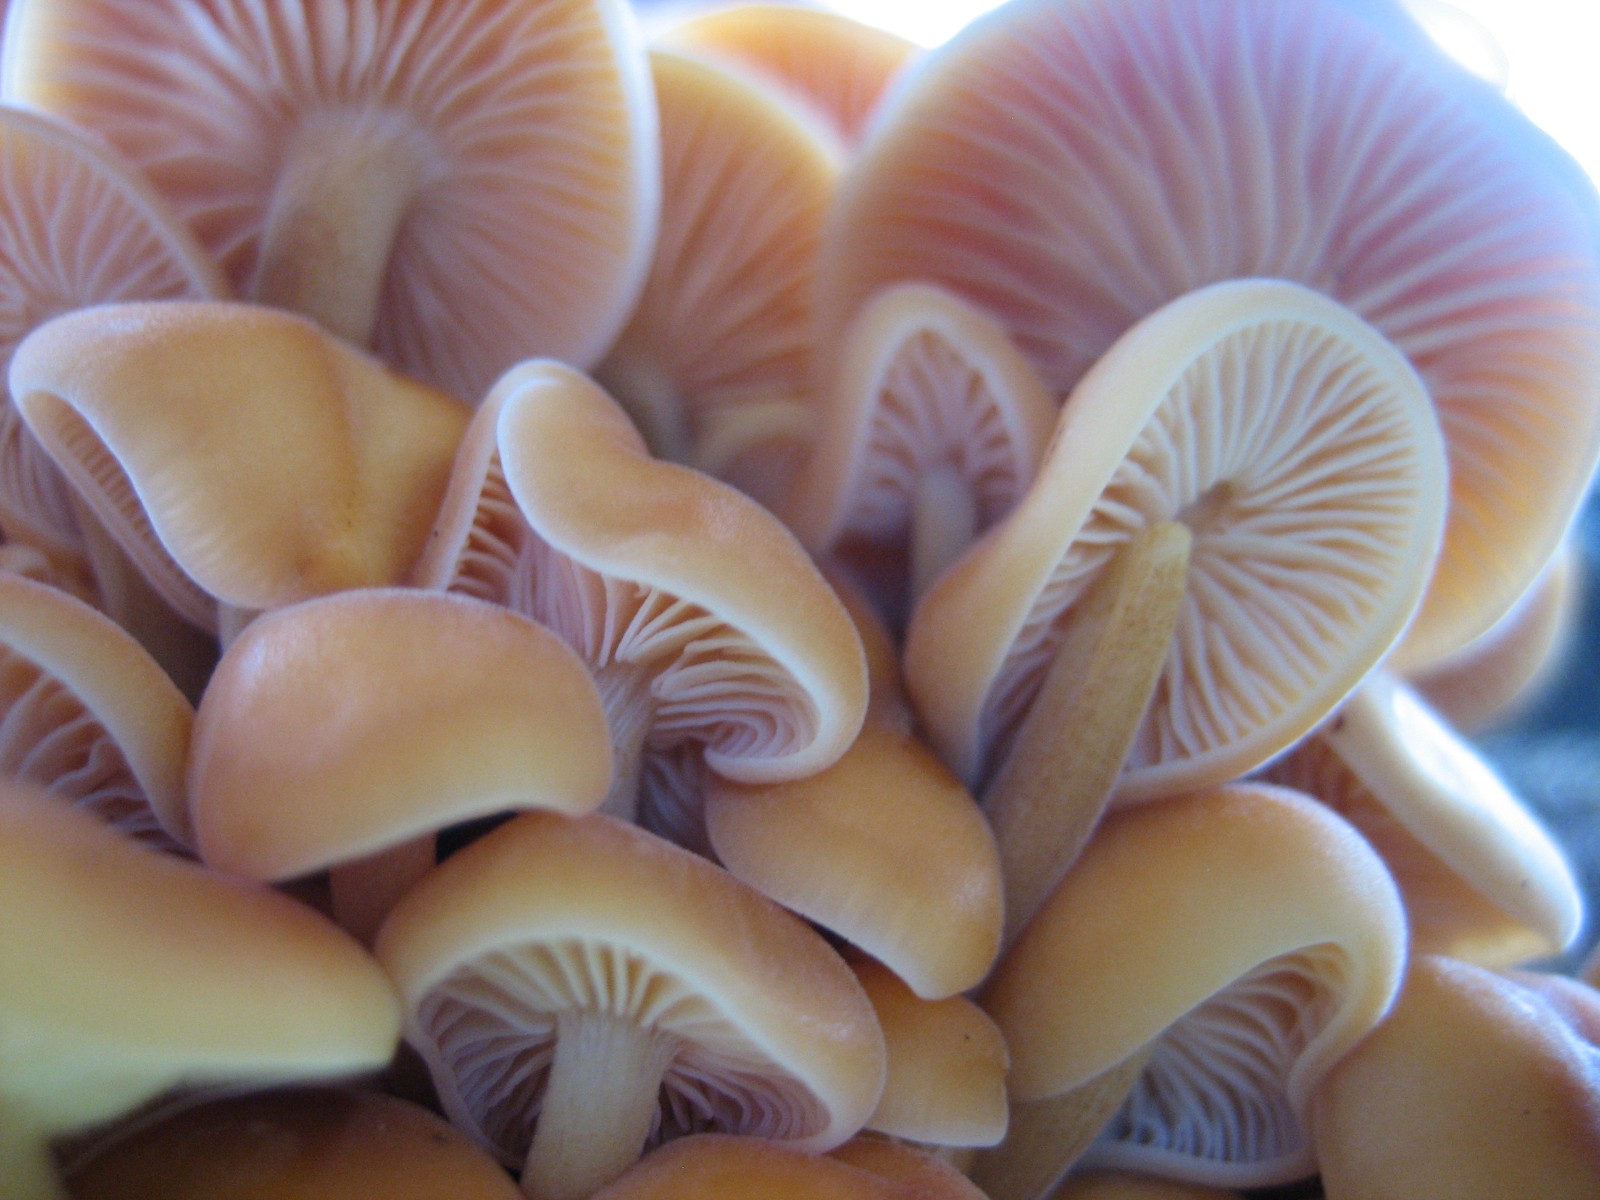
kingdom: Fungi
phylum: Basidiomycota
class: Agaricomycetes
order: Agaricales
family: Physalacriaceae
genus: Flammulina
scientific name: Flammulina velutipes
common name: gul fløjlsfod
